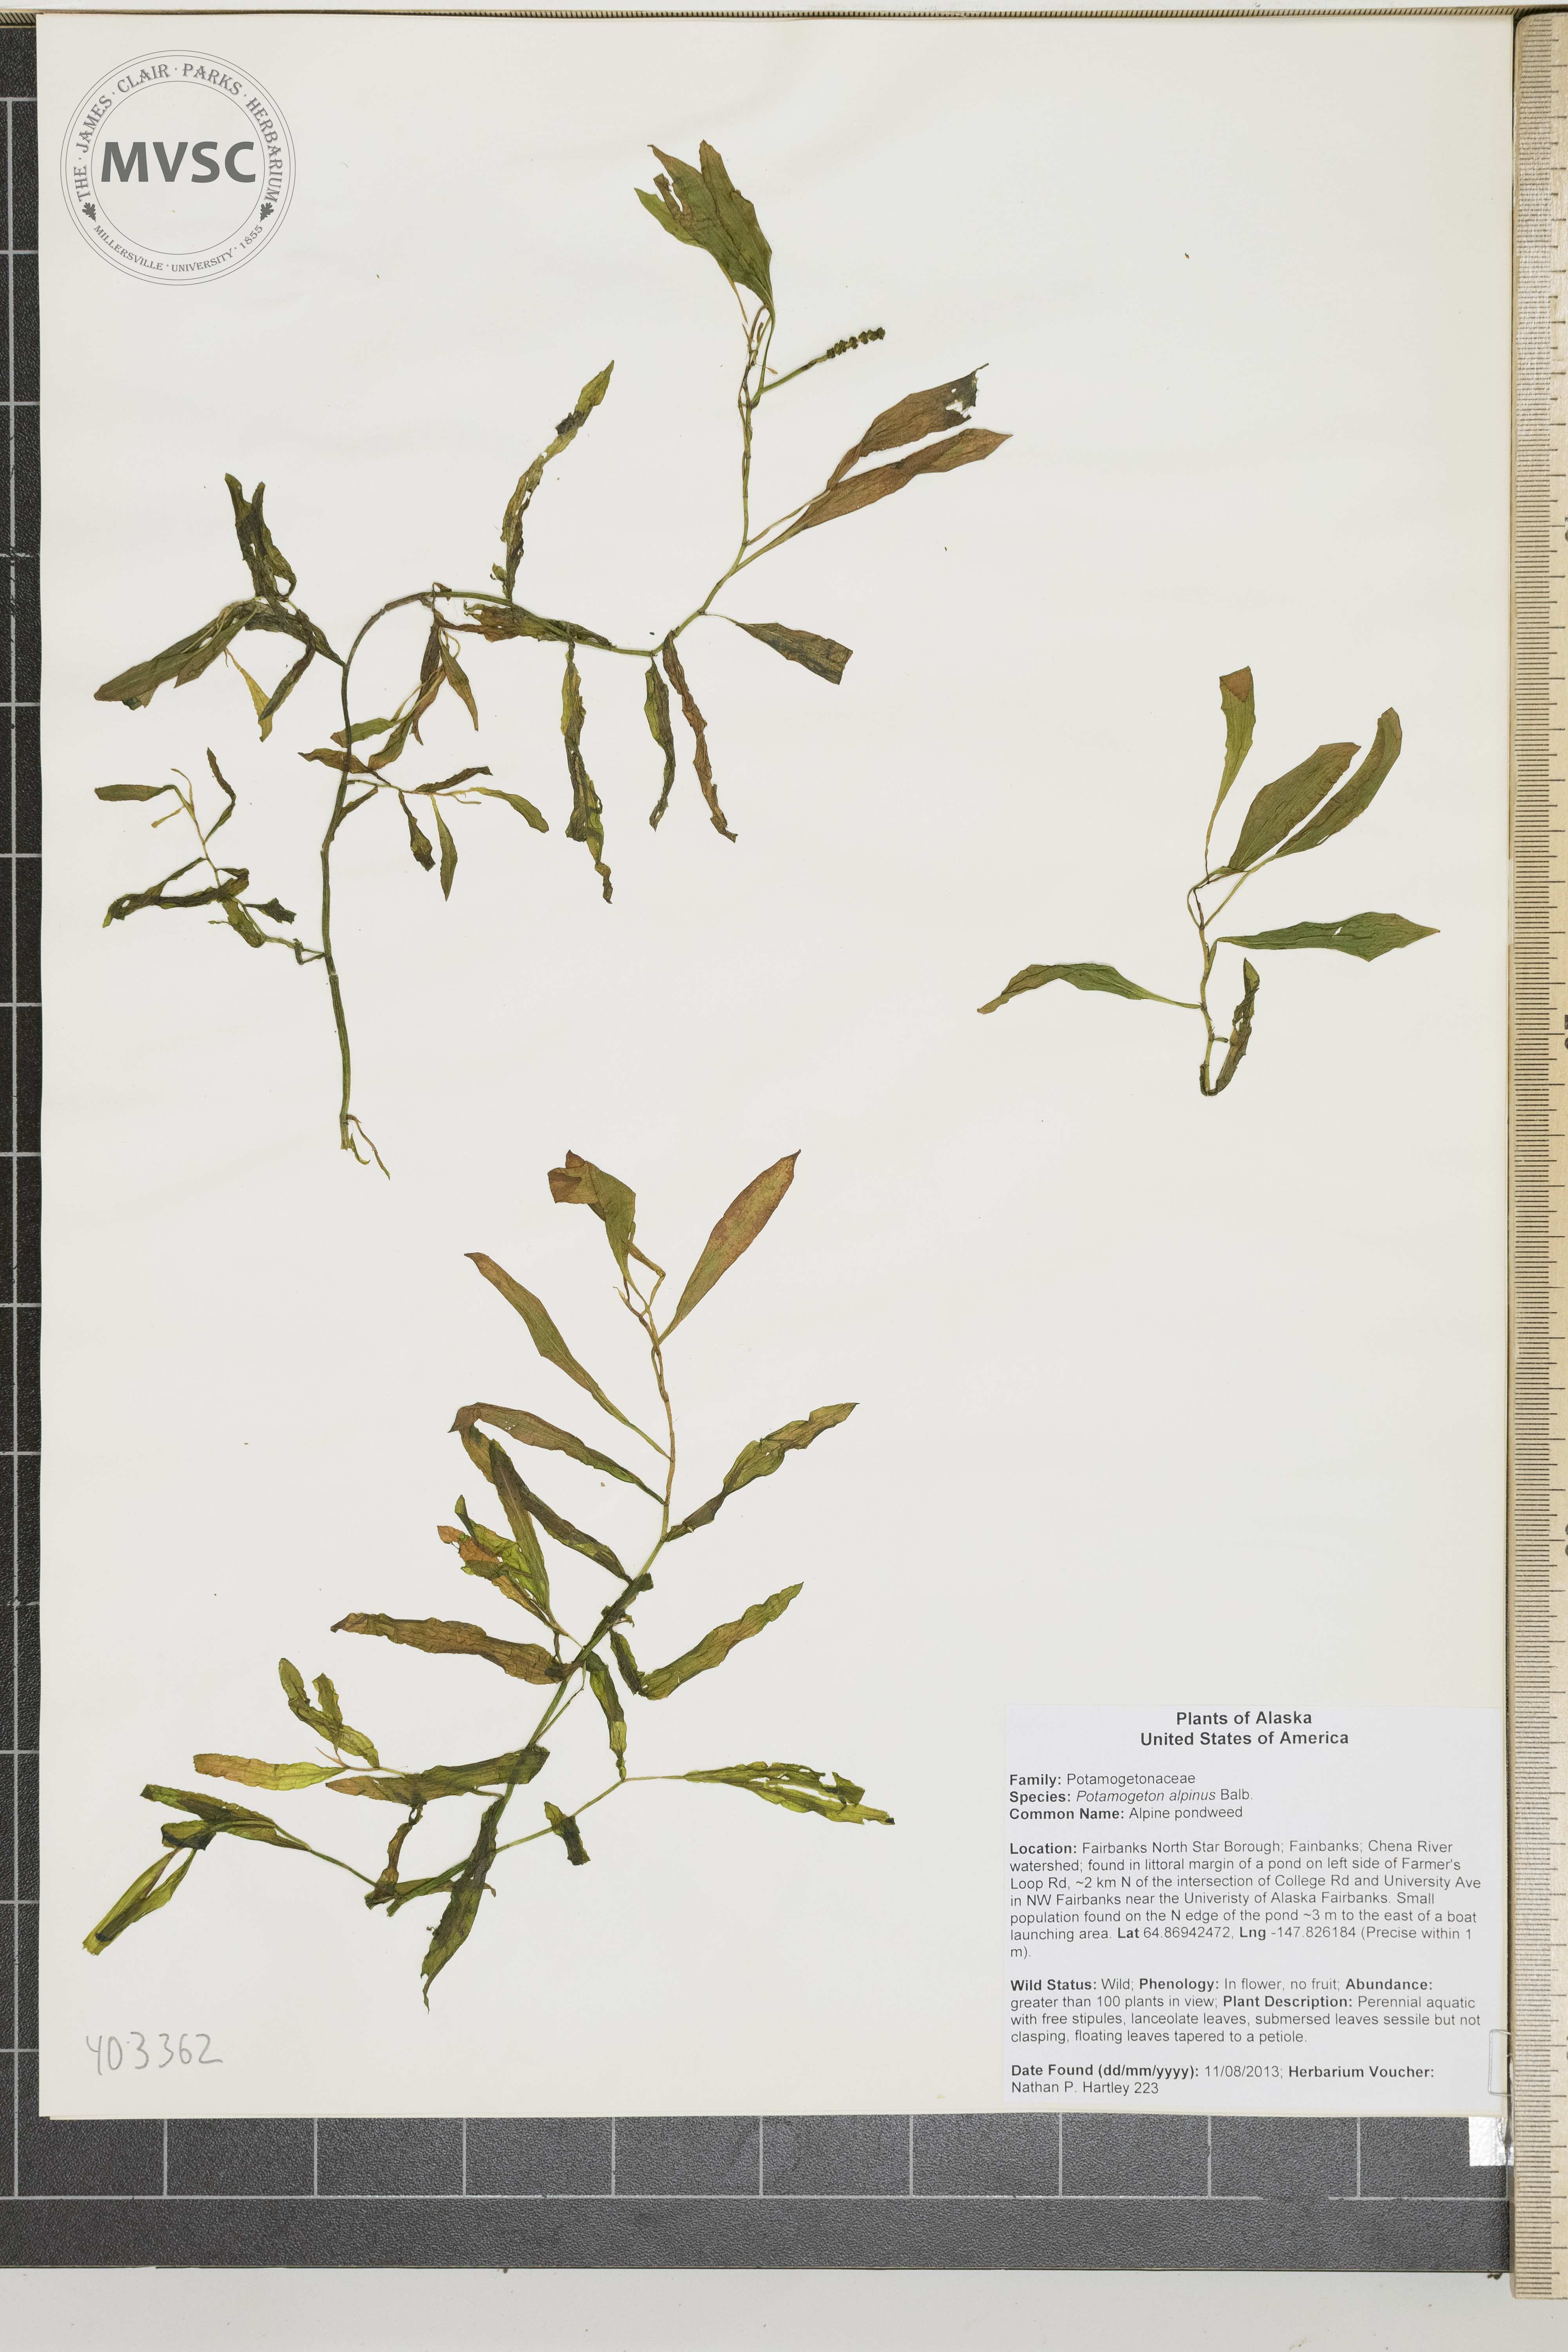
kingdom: Plantae
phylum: Tracheophyta
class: Liliopsida
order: Alismatales
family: Potamogetonaceae
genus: Potamogeton
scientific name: Potamogeton alpinus
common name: Red pondweed
